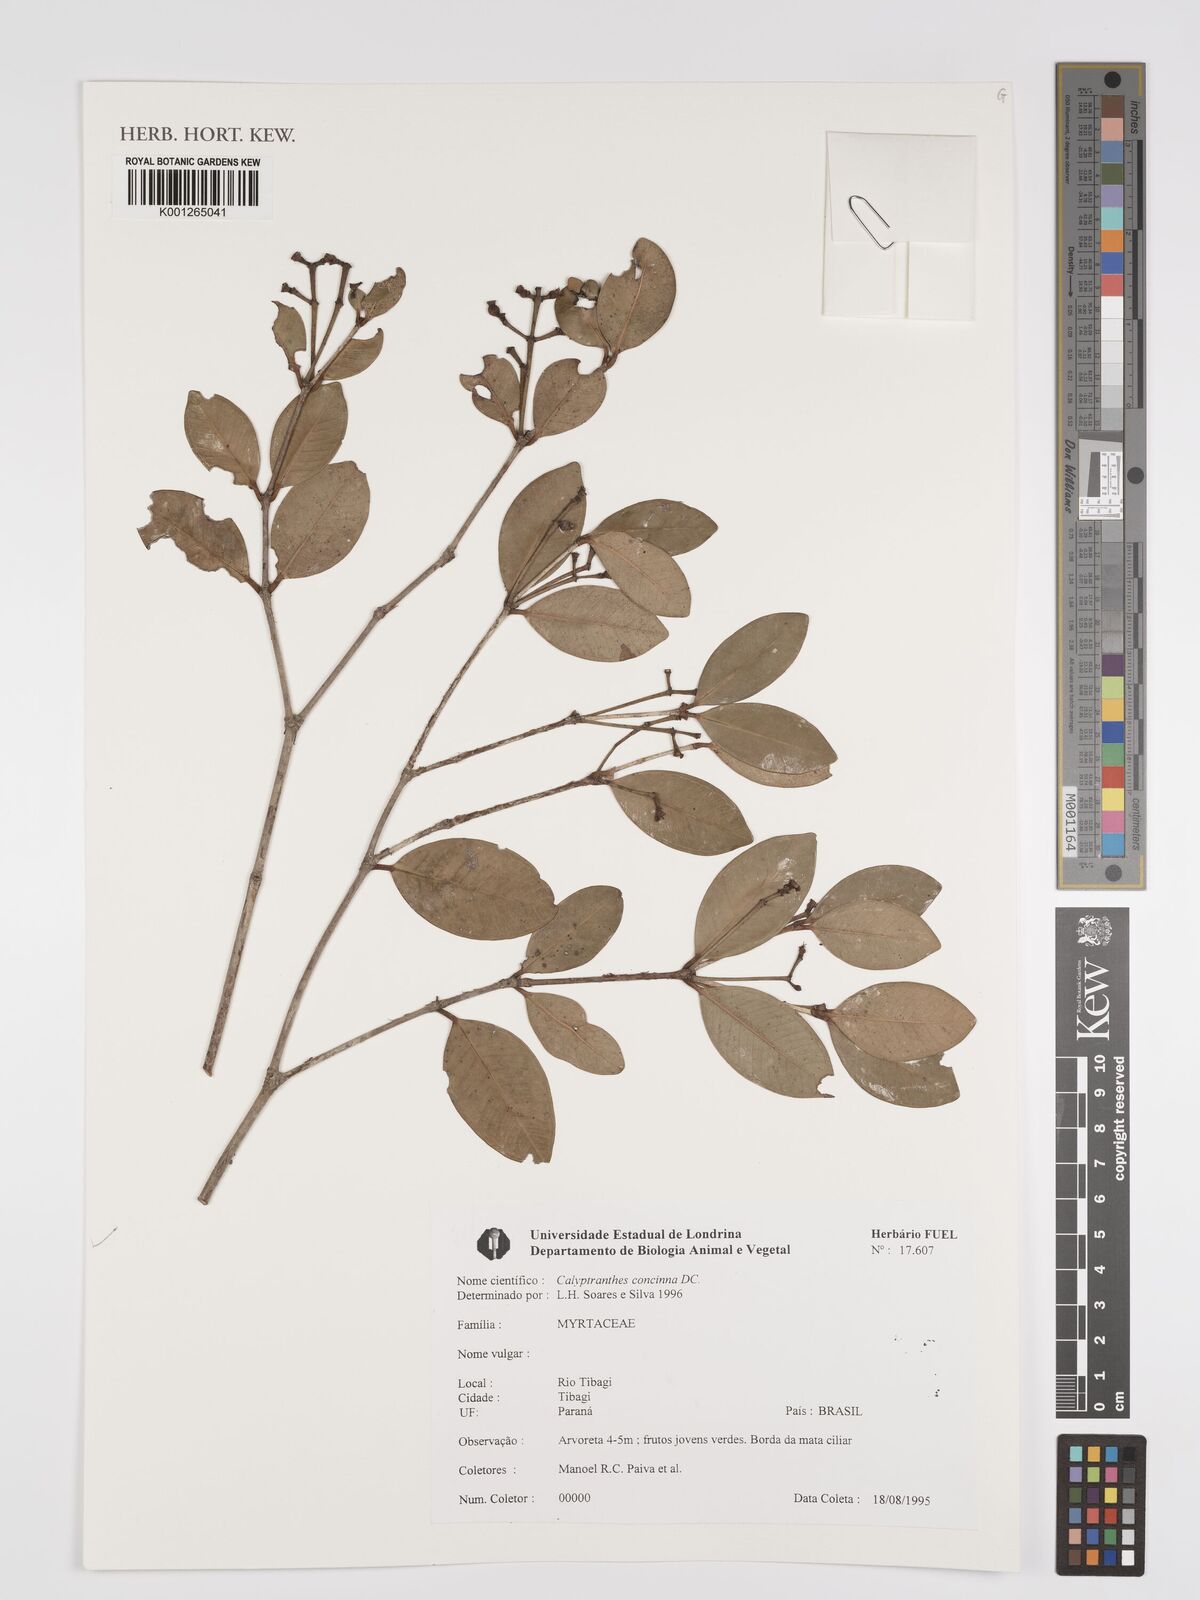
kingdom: Plantae
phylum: Tracheophyta
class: Magnoliopsida
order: Myrtales
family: Myrtaceae
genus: Myrcia
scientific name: Myrcia cruciflora
